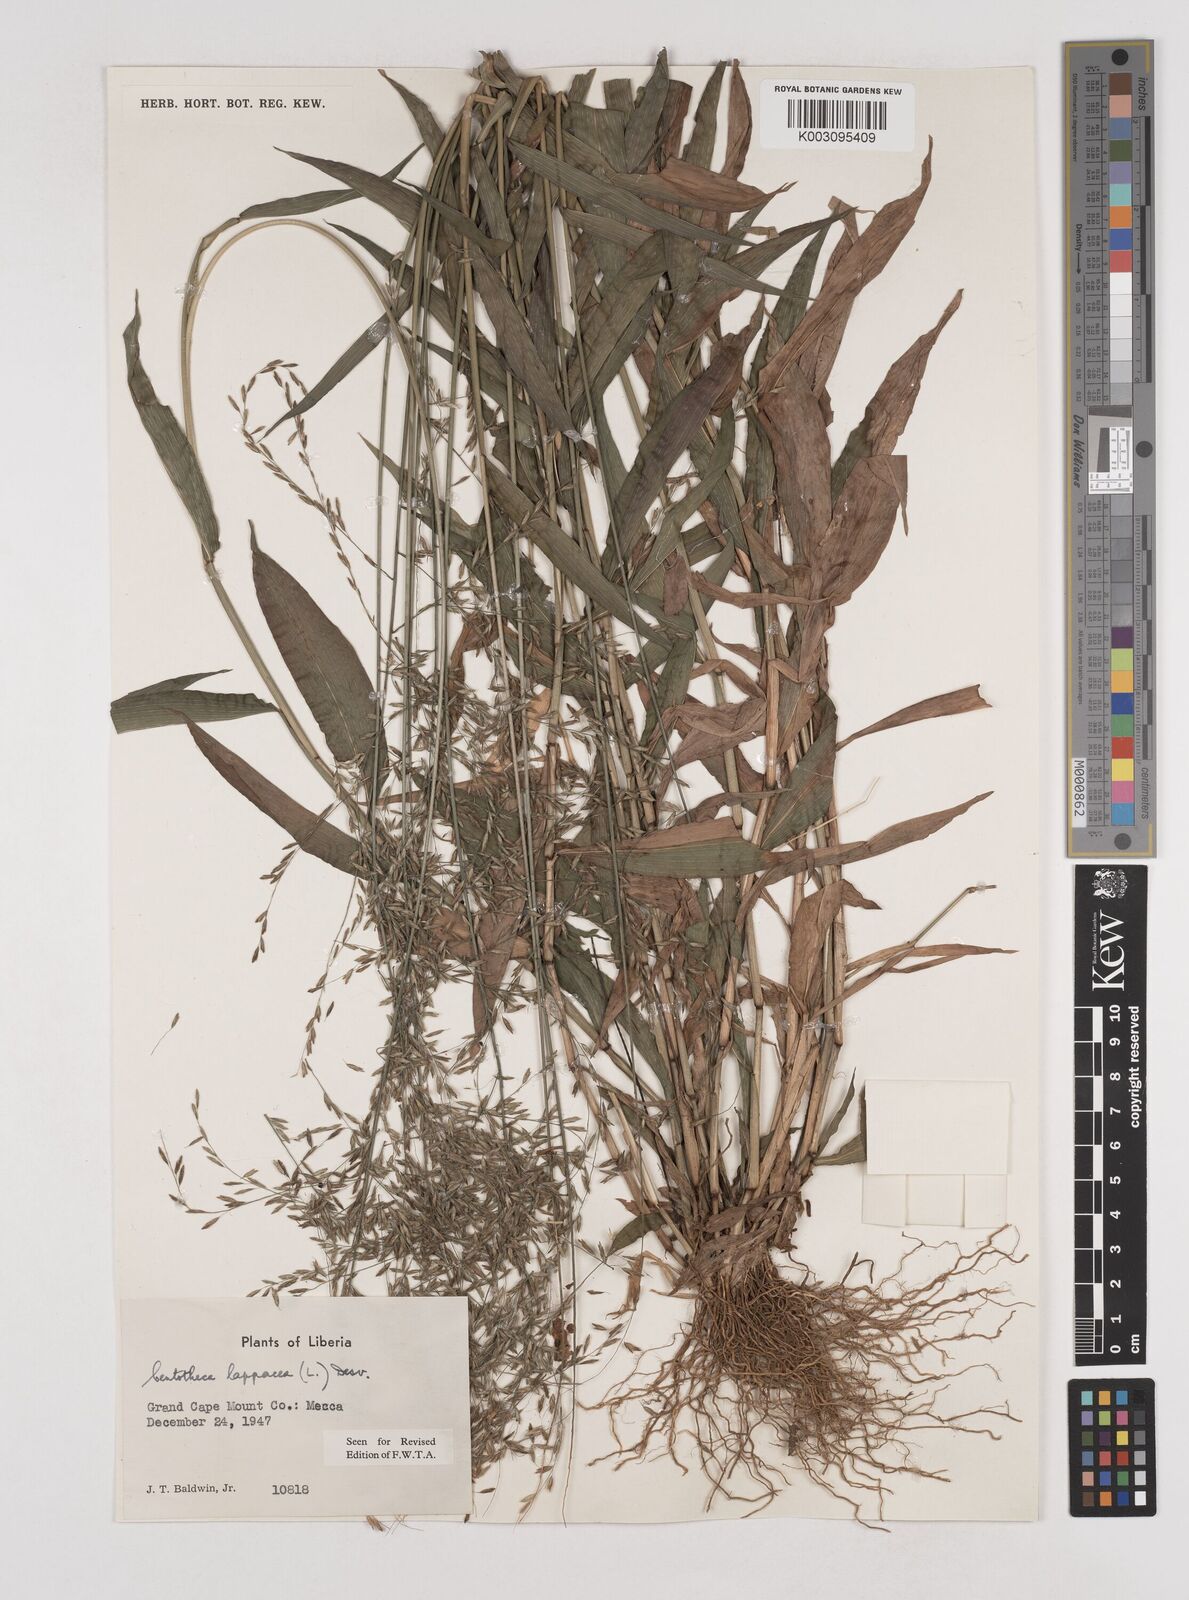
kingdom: Plantae
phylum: Tracheophyta
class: Liliopsida
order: Poales
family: Poaceae
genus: Centotheca
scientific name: Centotheca lappacea
